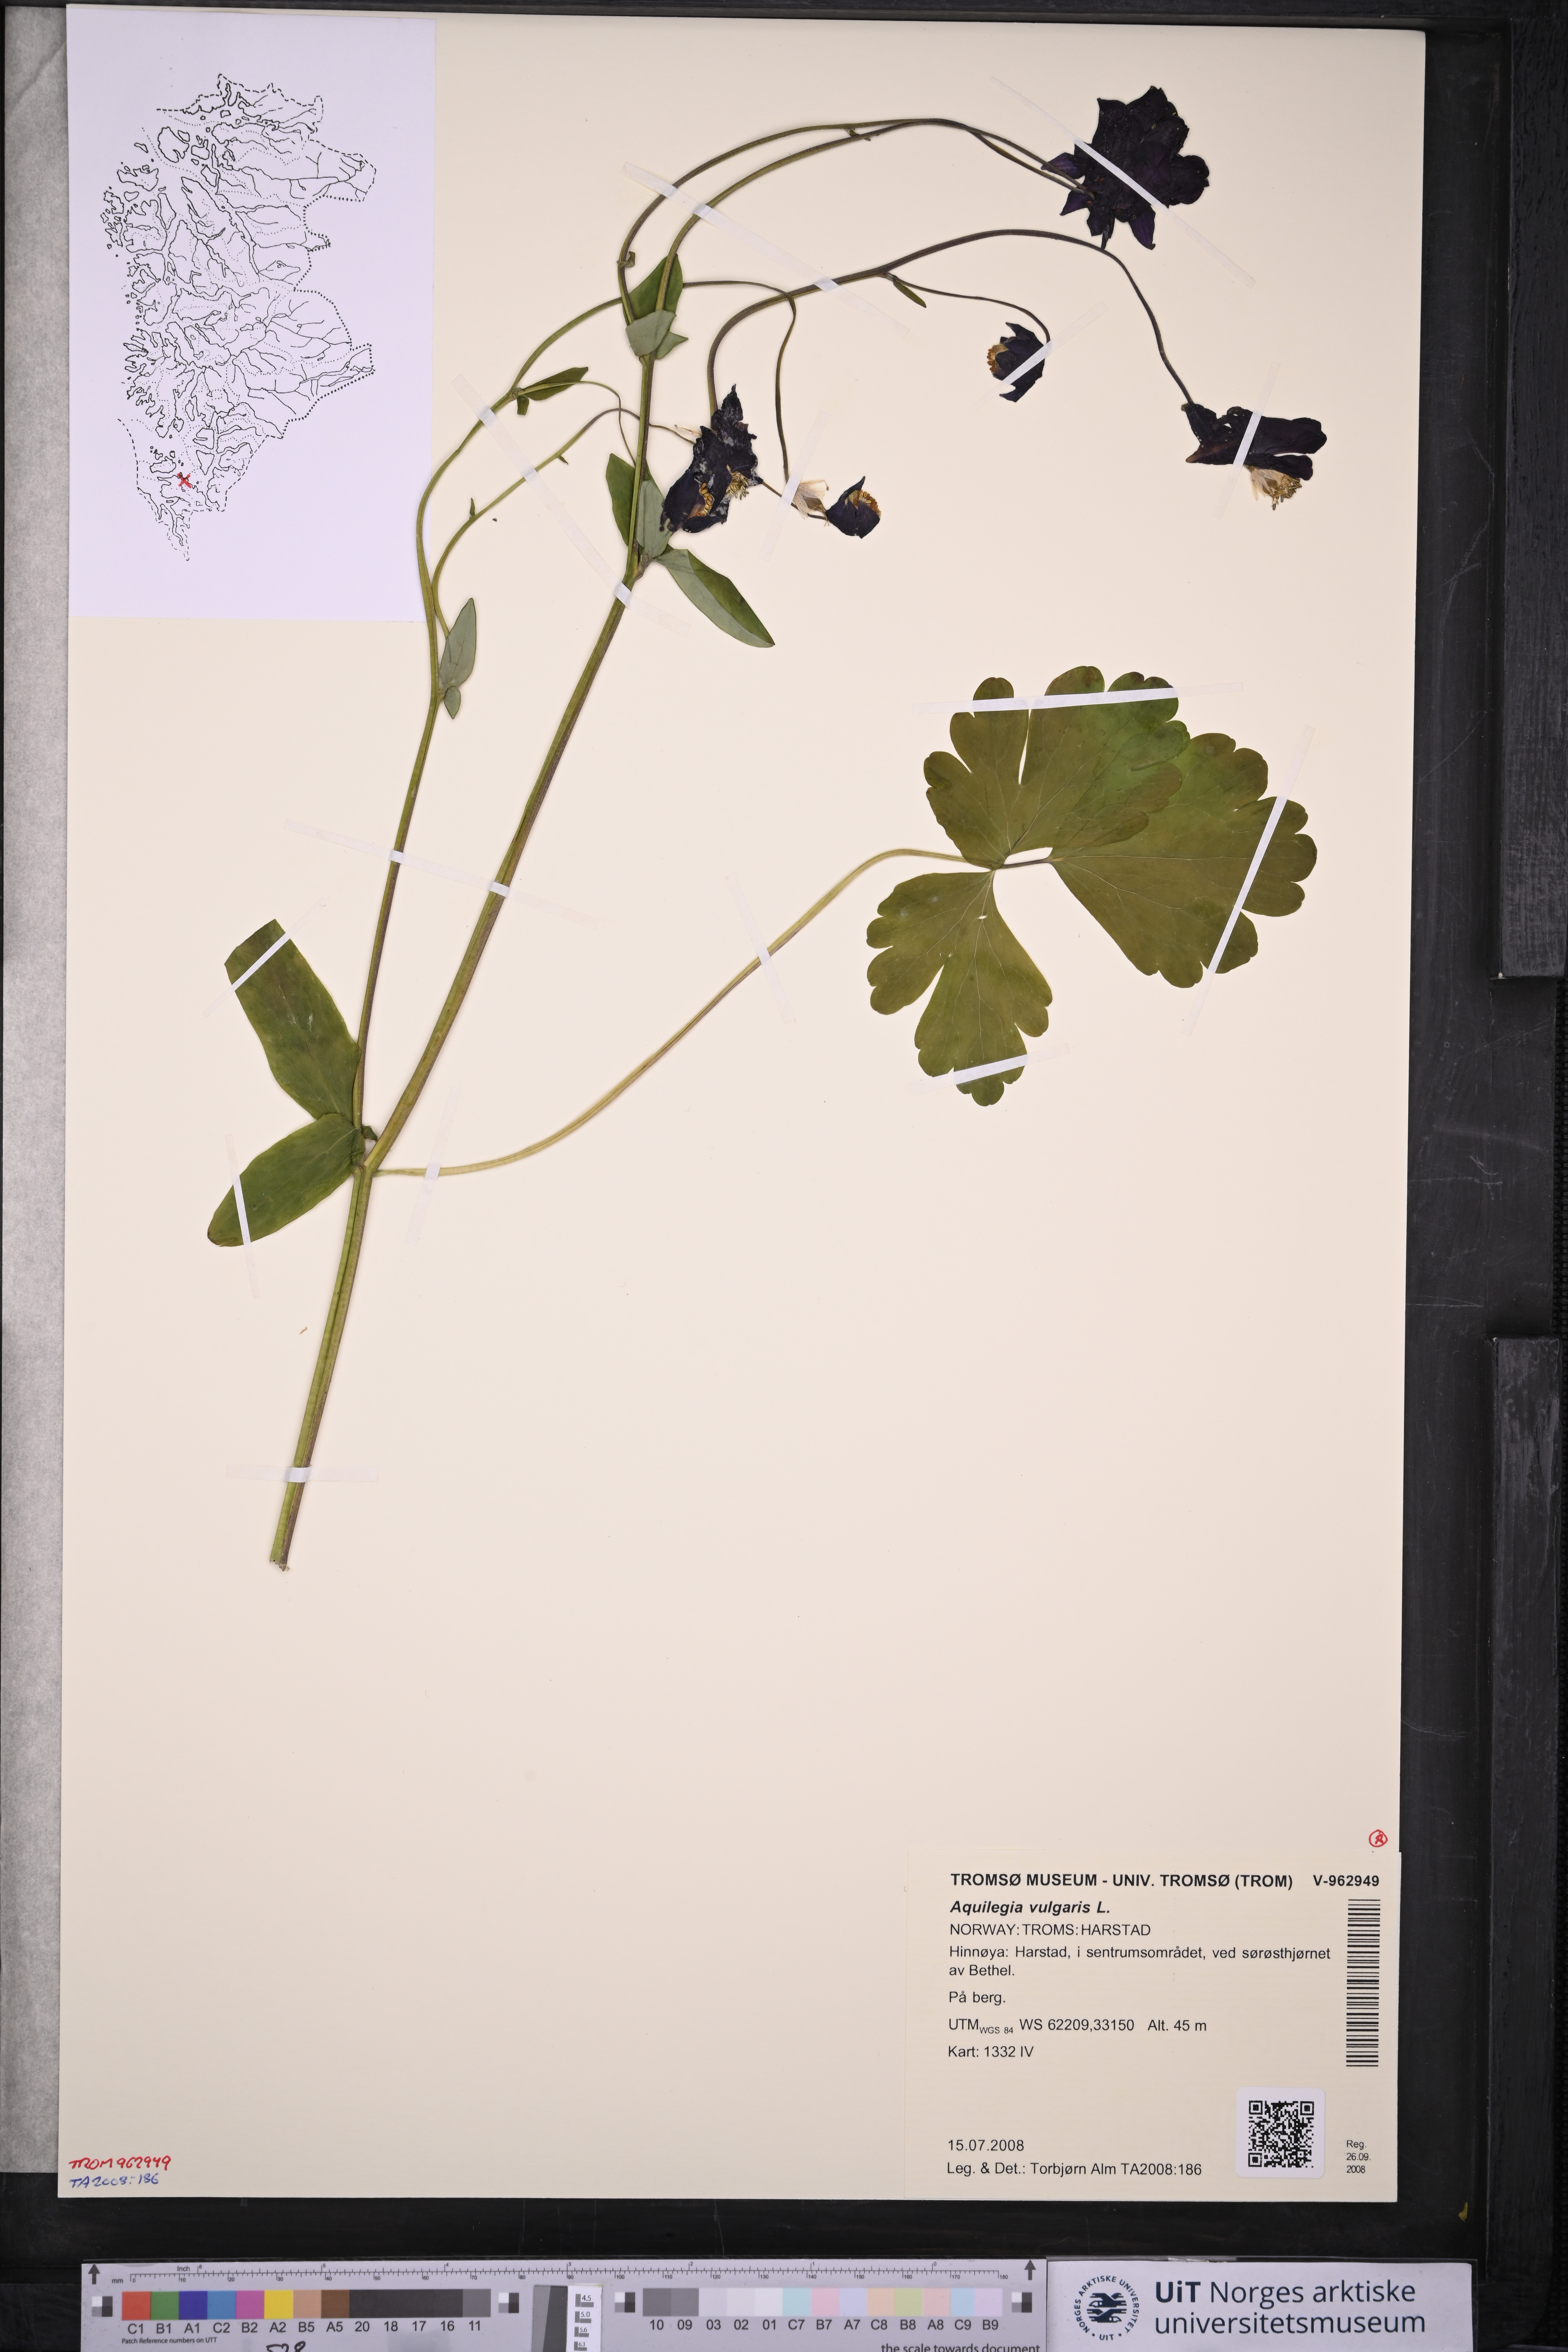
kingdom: Plantae
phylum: Tracheophyta
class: Magnoliopsida
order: Ranunculales
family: Ranunculaceae
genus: Aquilegia
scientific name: Aquilegia vulgaris
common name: Columbine
